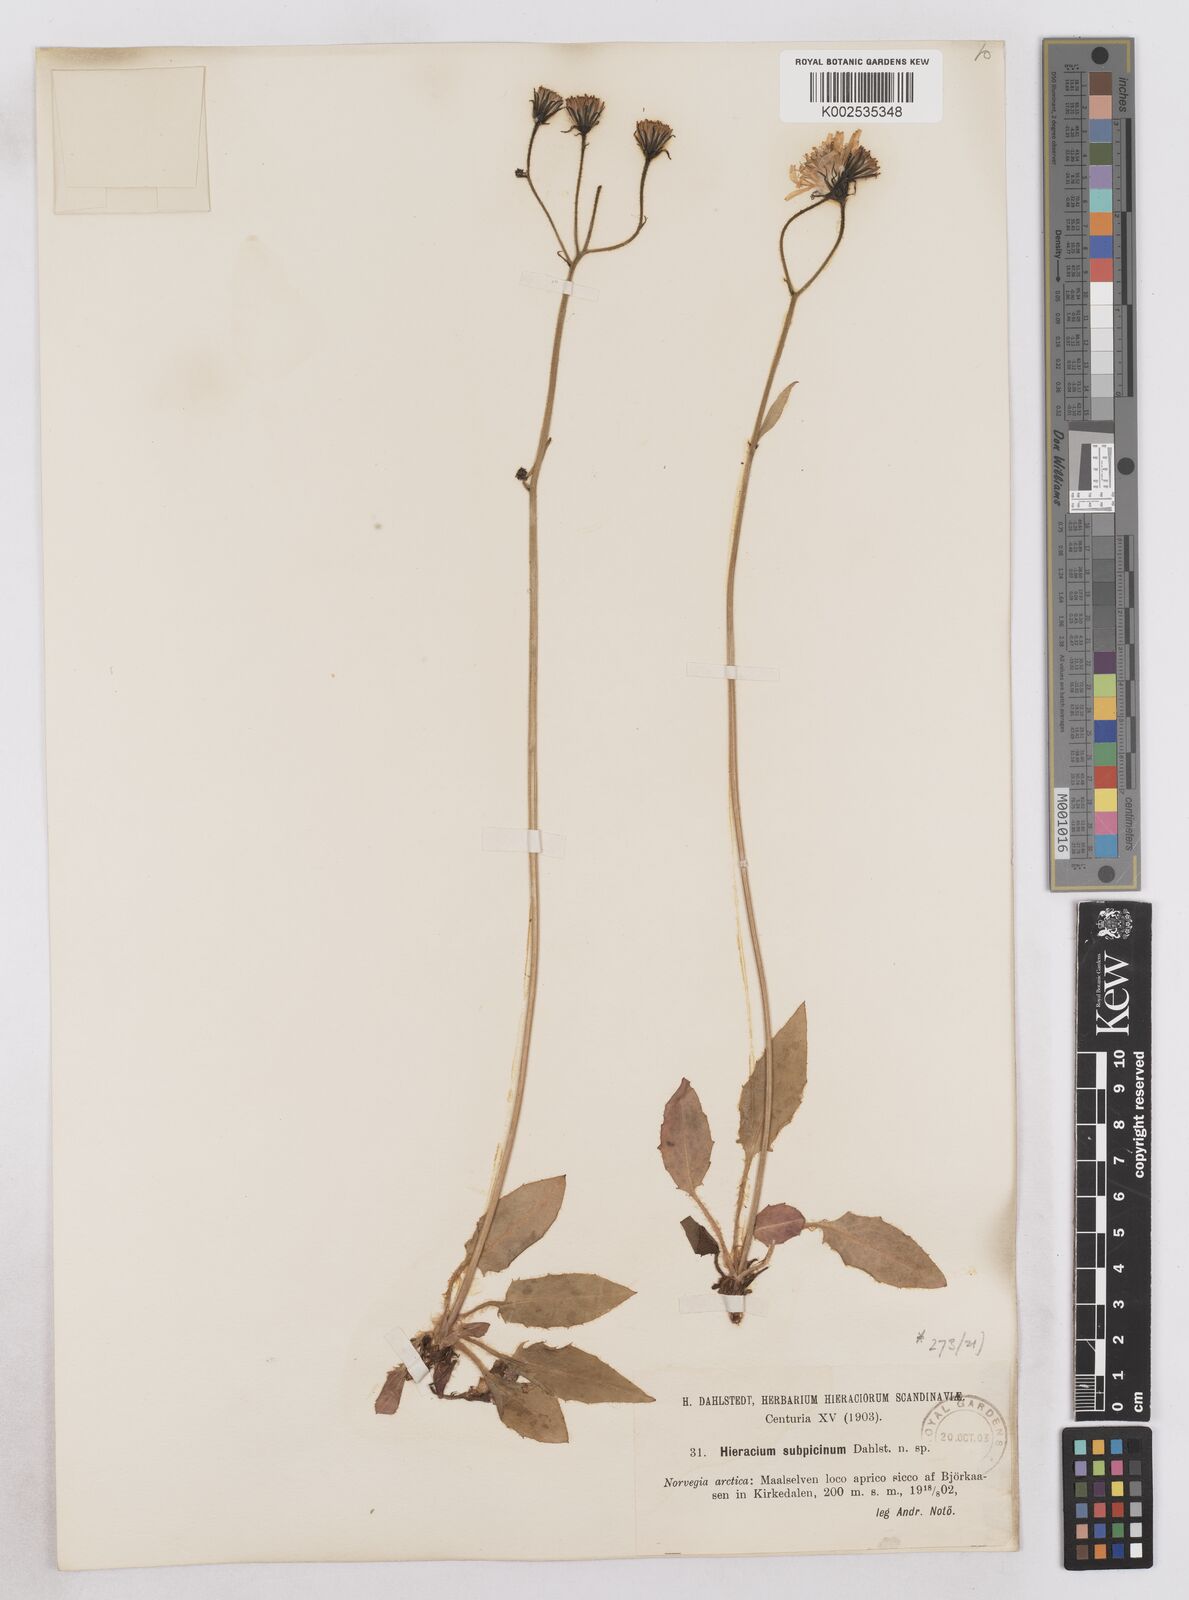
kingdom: Plantae
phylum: Tracheophyta
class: Magnoliopsida
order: Asterales
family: Asteraceae
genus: Hieracium
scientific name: Hieracium conspurcans
